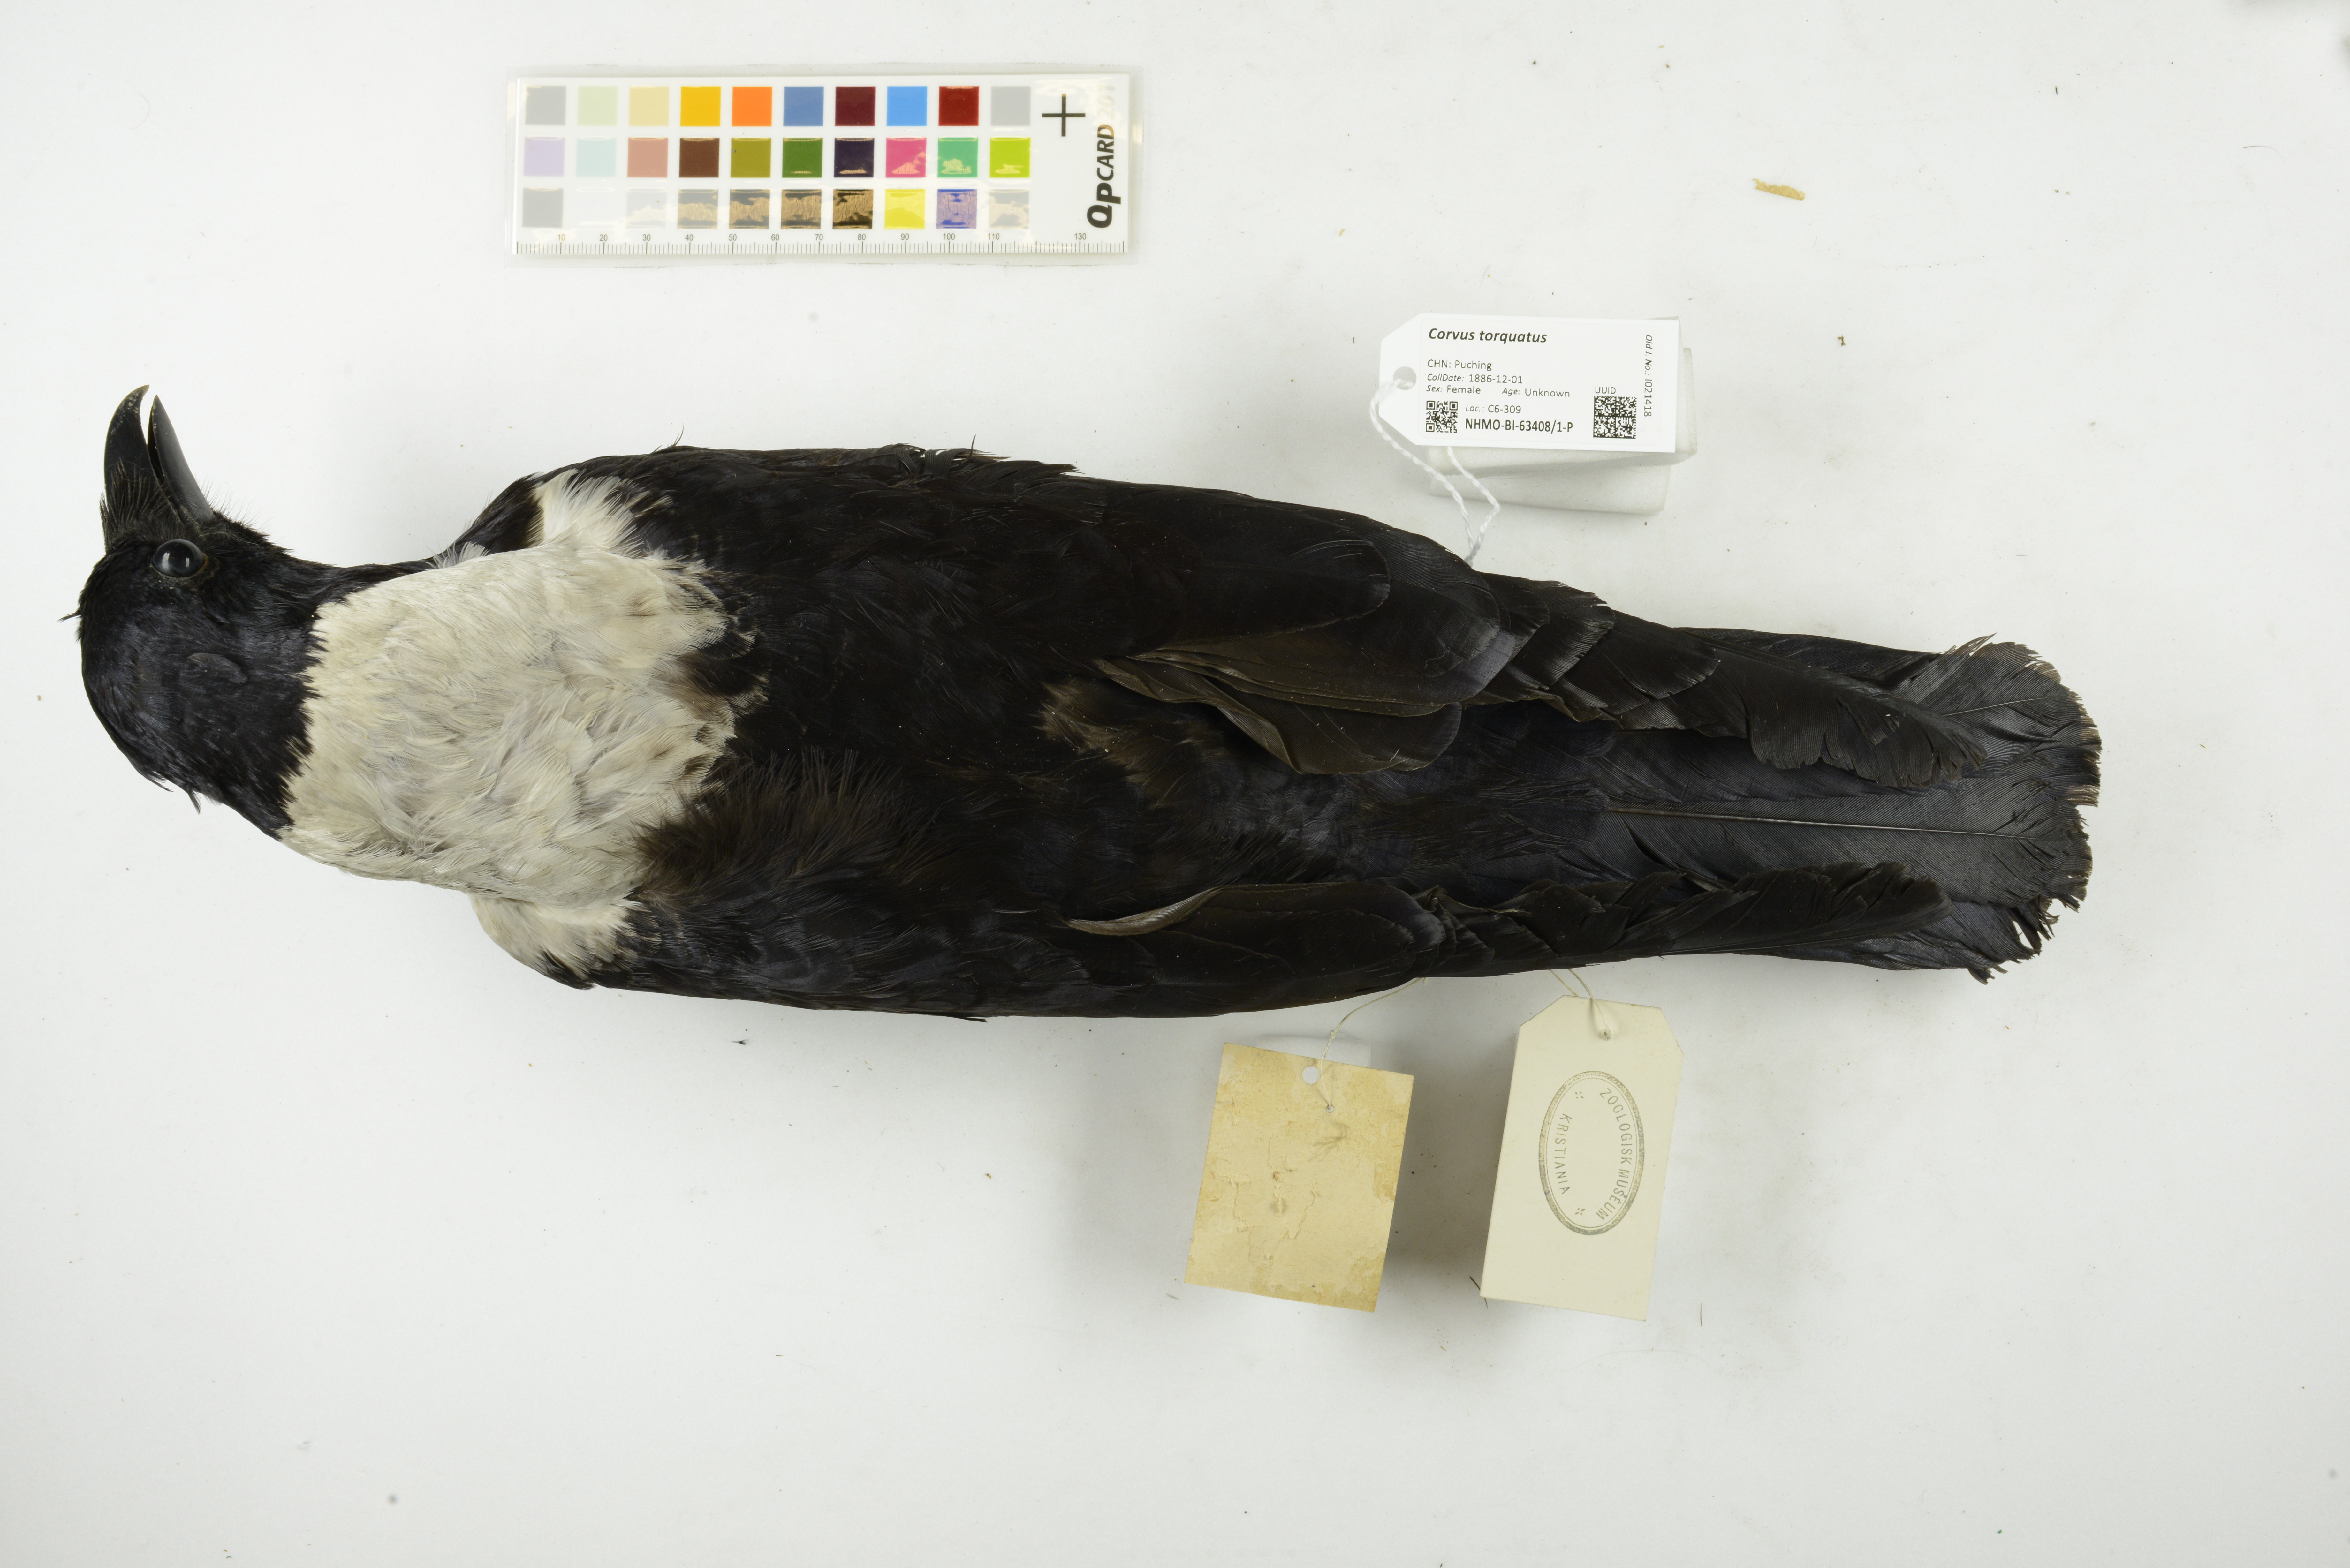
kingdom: Animalia
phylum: Chordata
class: Aves
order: Passeriformes
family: Corvidae
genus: Corvus
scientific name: Corvus torquatus
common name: Collared crow
